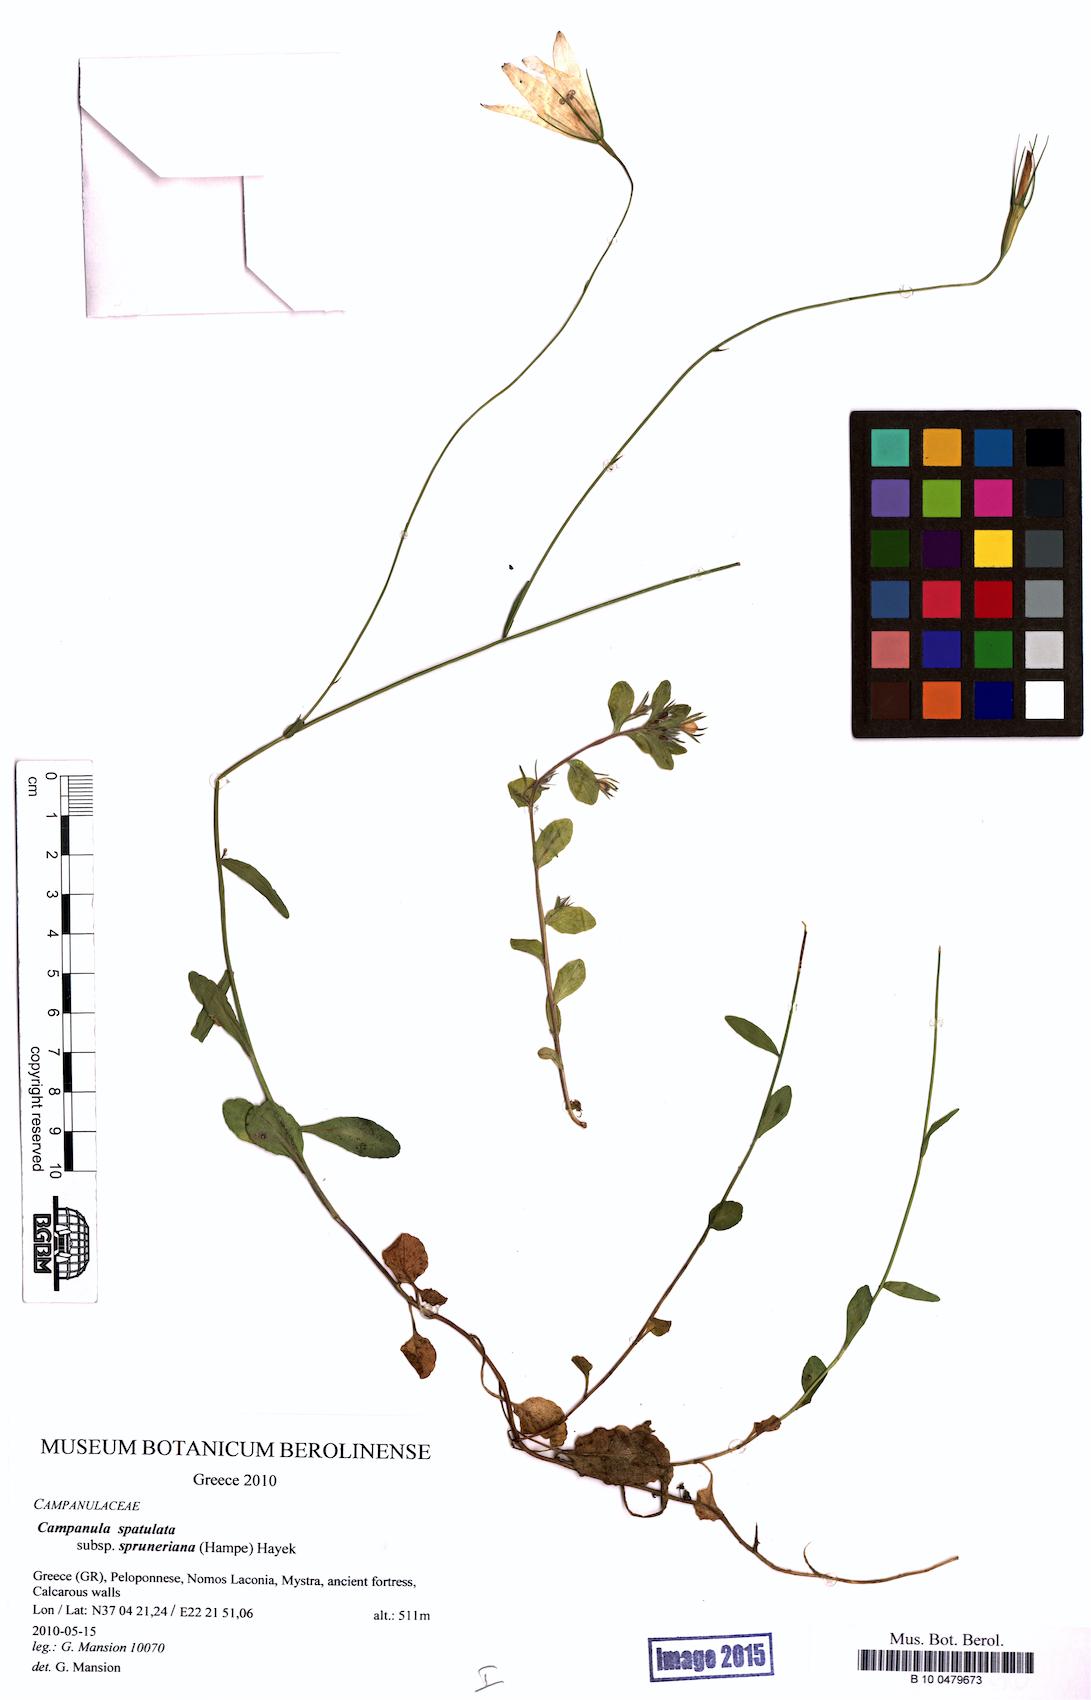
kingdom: Plantae
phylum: Tracheophyta
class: Magnoliopsida
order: Asterales
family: Campanulaceae
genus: Campanula
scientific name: Campanula spatulata
